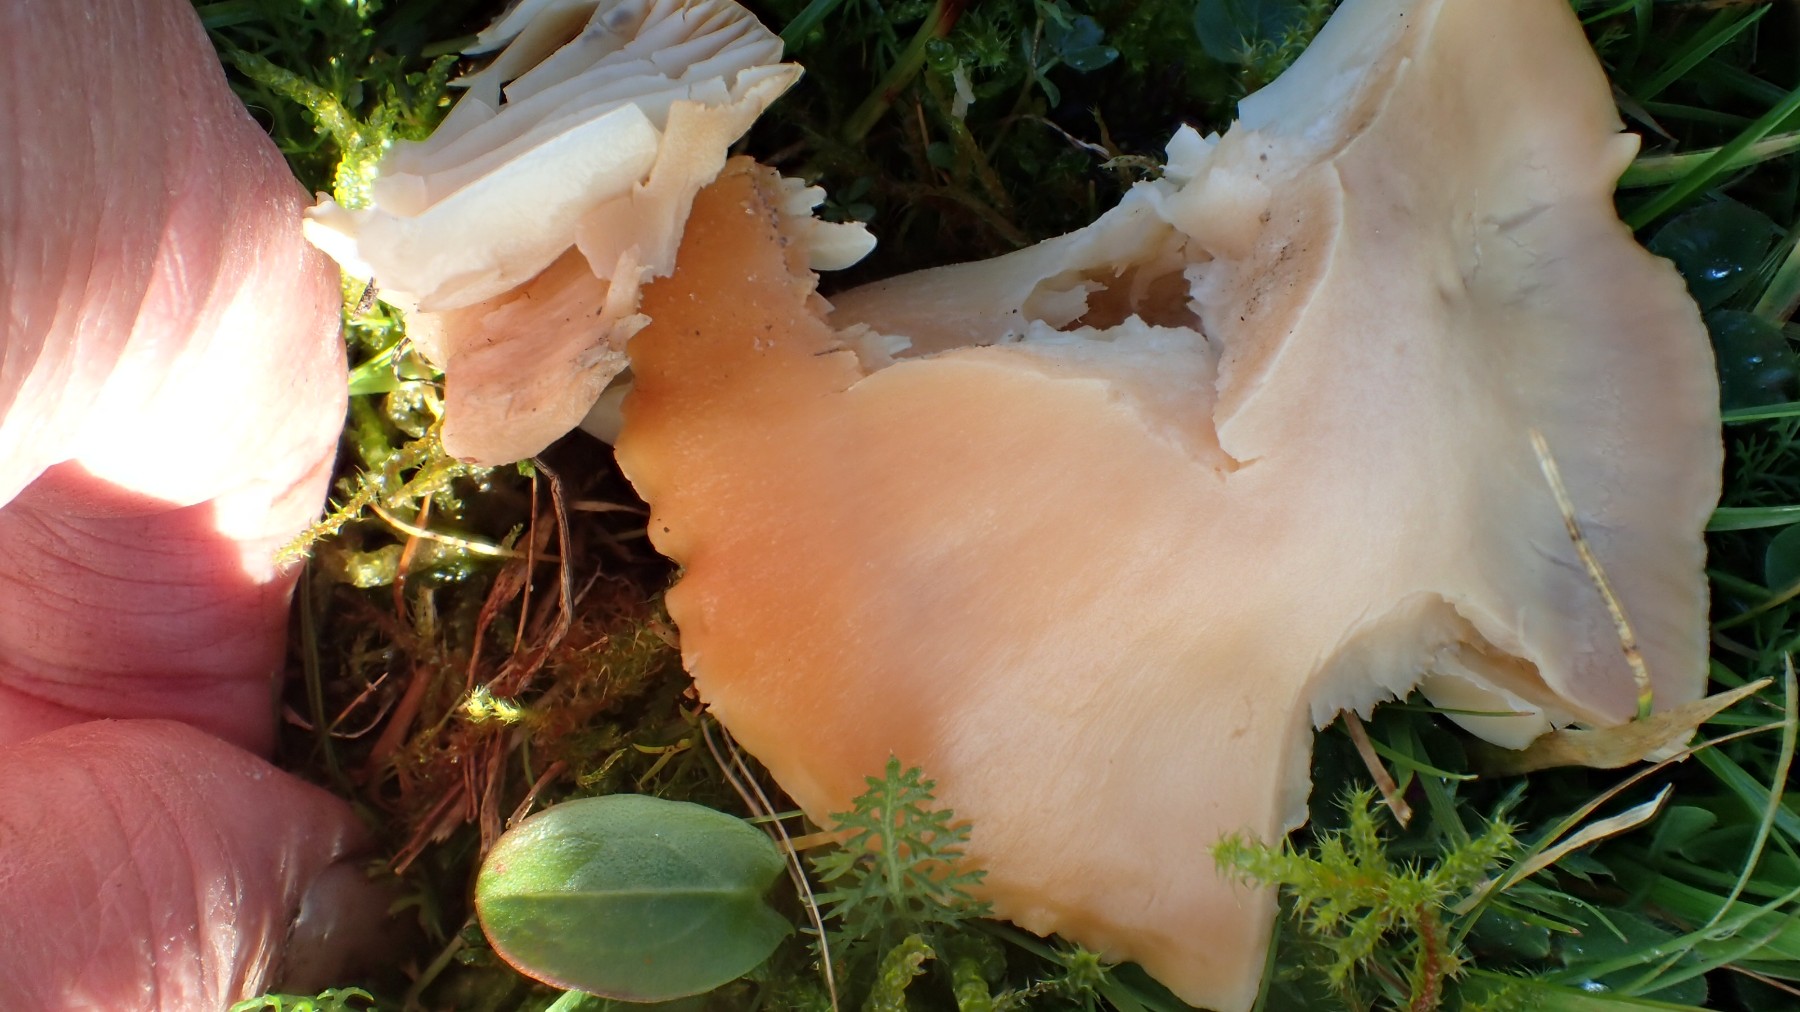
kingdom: Fungi
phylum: Basidiomycota
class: Agaricomycetes
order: Agaricales
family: Hygrophoraceae
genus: Cuphophyllus
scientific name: Cuphophyllus pratensis
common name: eng-vokshat
